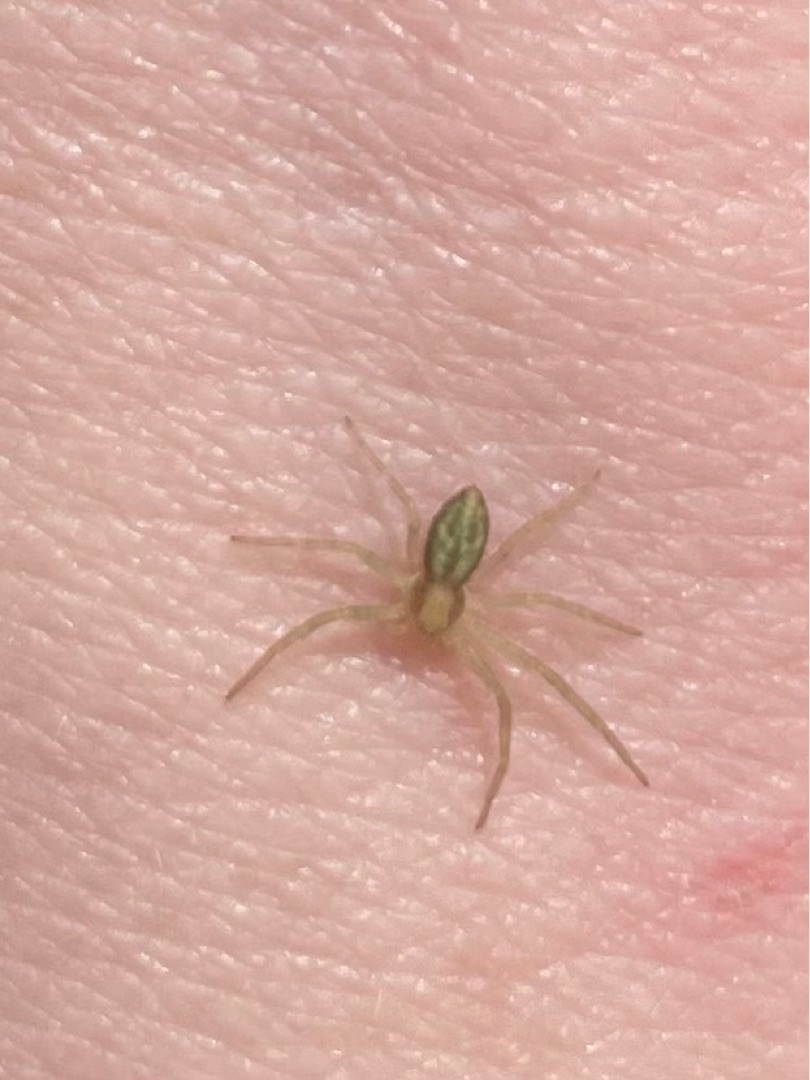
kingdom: Animalia
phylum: Arthropoda
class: Arachnida
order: Araneae
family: Philodromidae
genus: Philodromus
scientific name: Philodromus dispar
